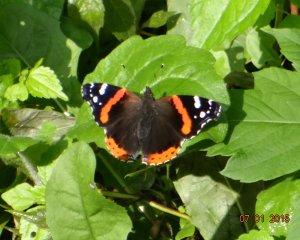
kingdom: Animalia
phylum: Arthropoda
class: Insecta
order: Lepidoptera
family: Nymphalidae
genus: Vanessa
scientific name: Vanessa atalanta
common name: Red Admiral
